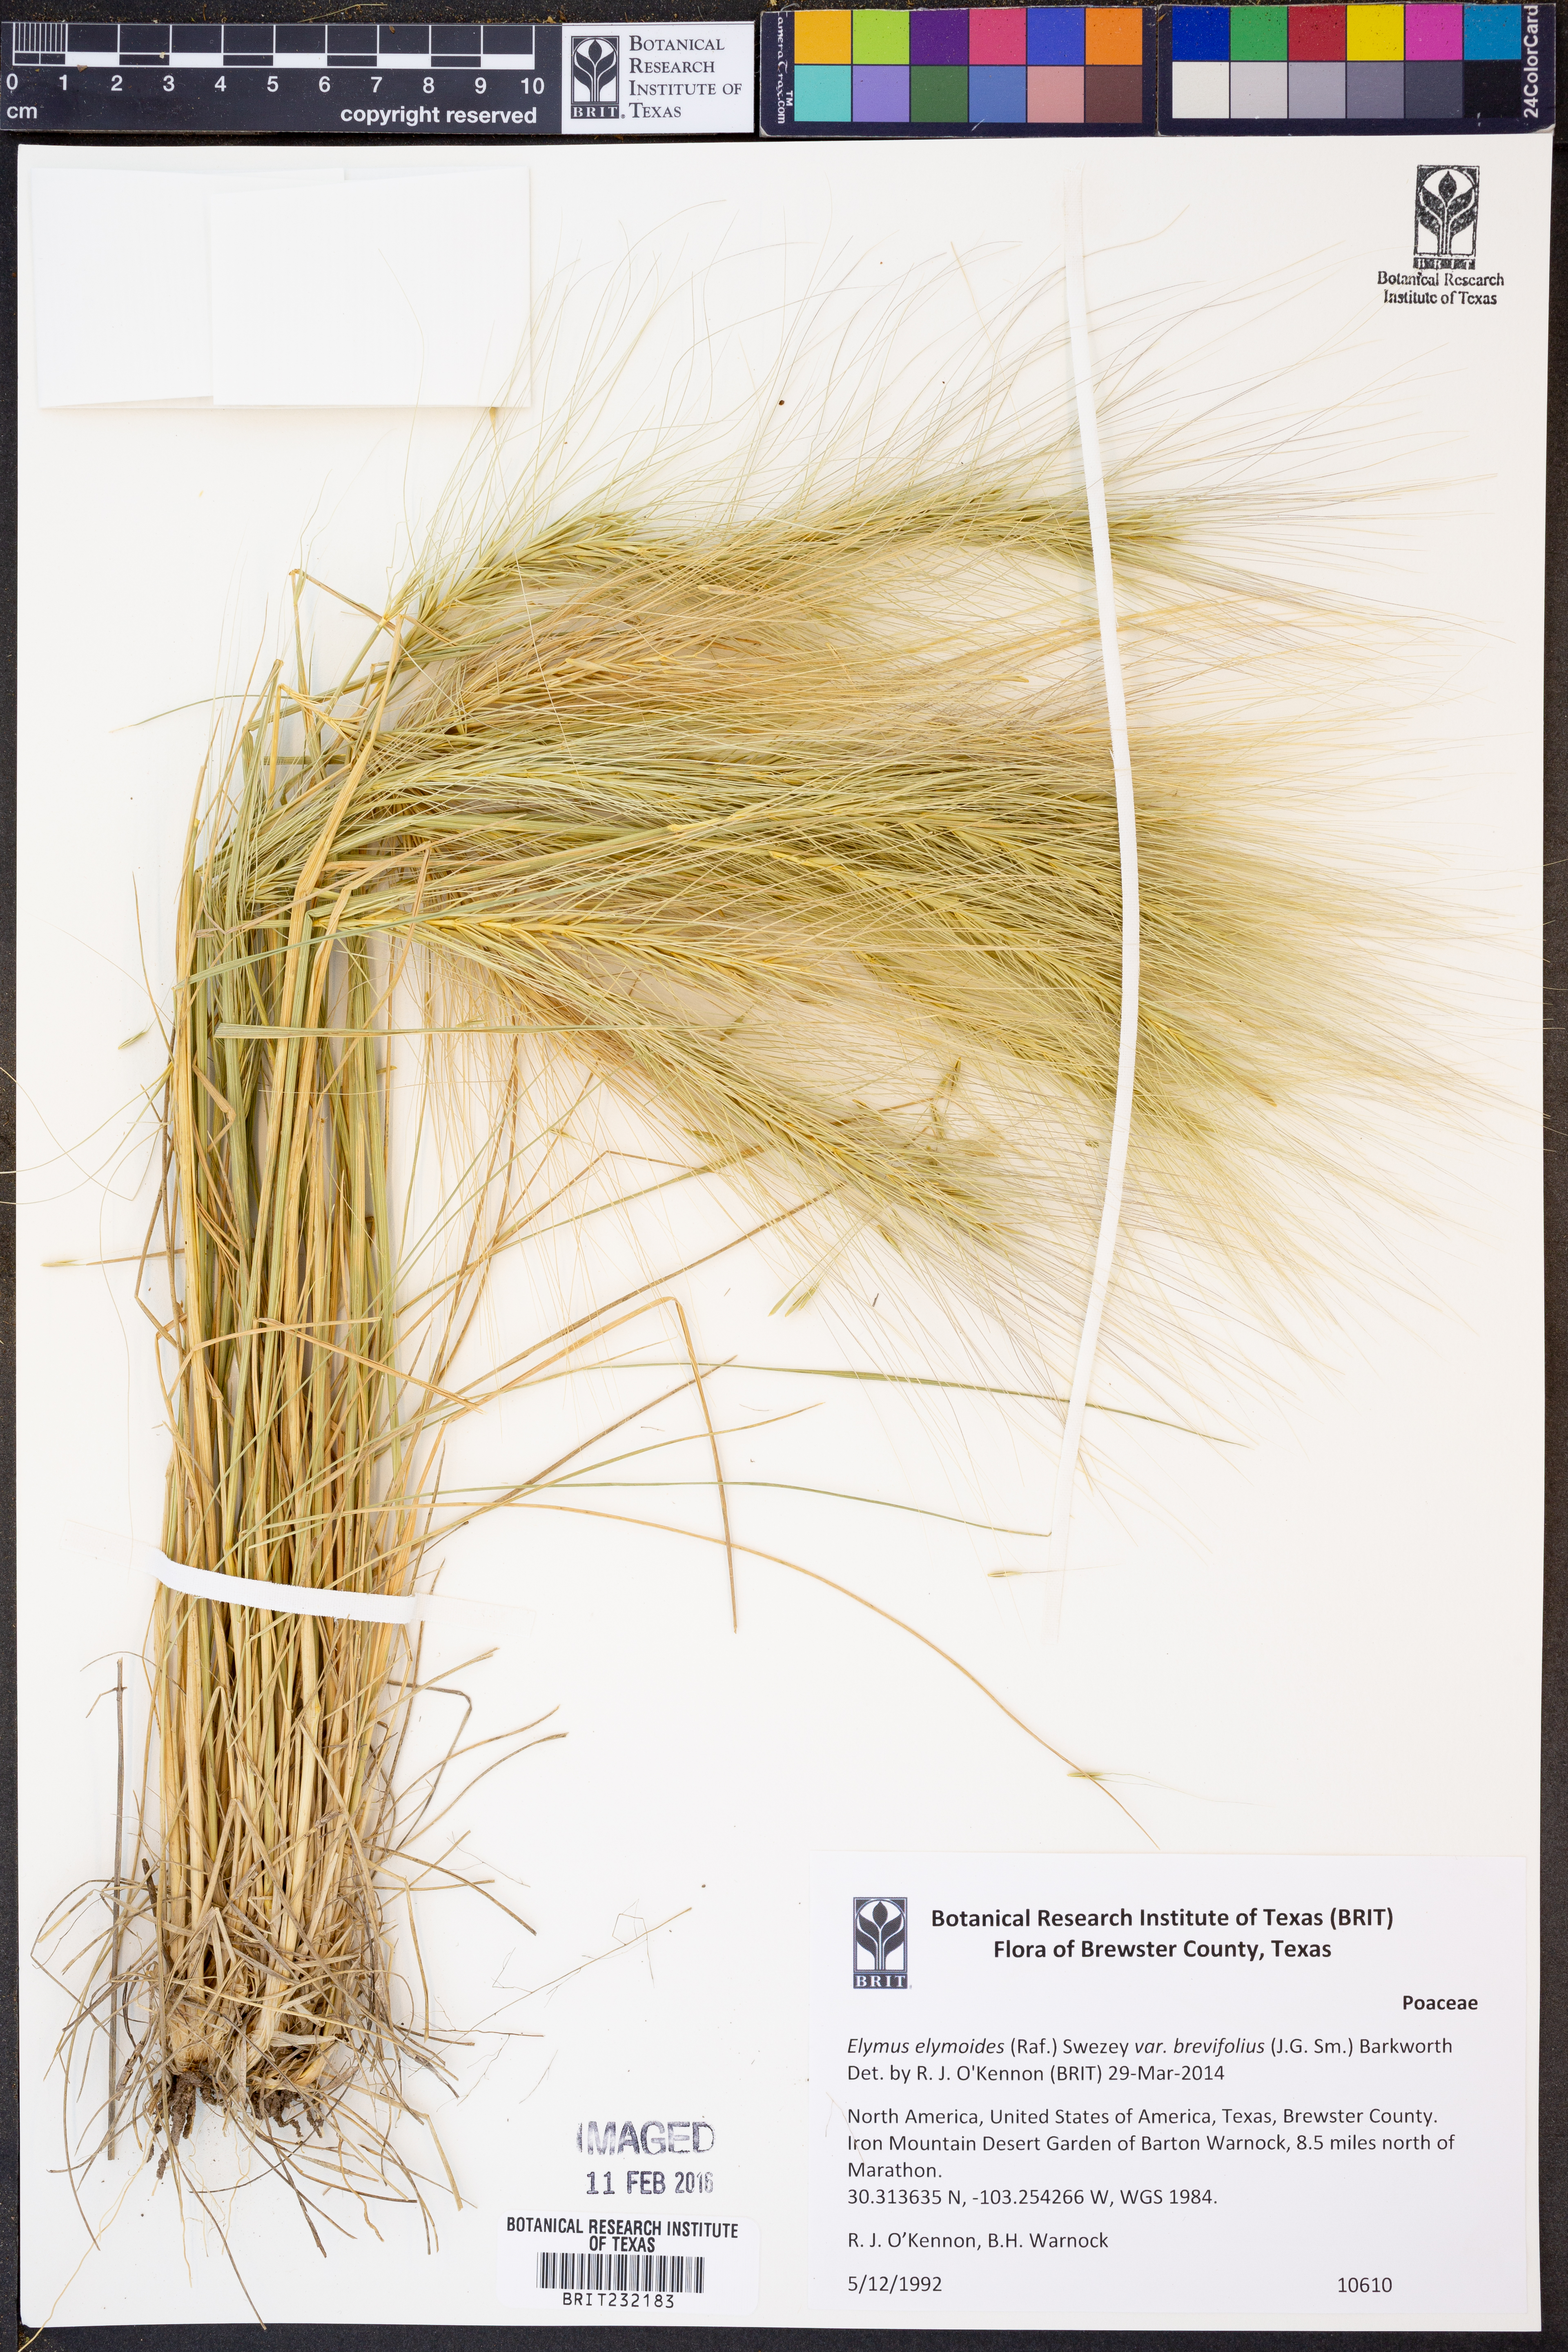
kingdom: Plantae
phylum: Tracheophyta
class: Liliopsida
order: Poales
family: Poaceae
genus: Elymus
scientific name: Elymus longifolius
